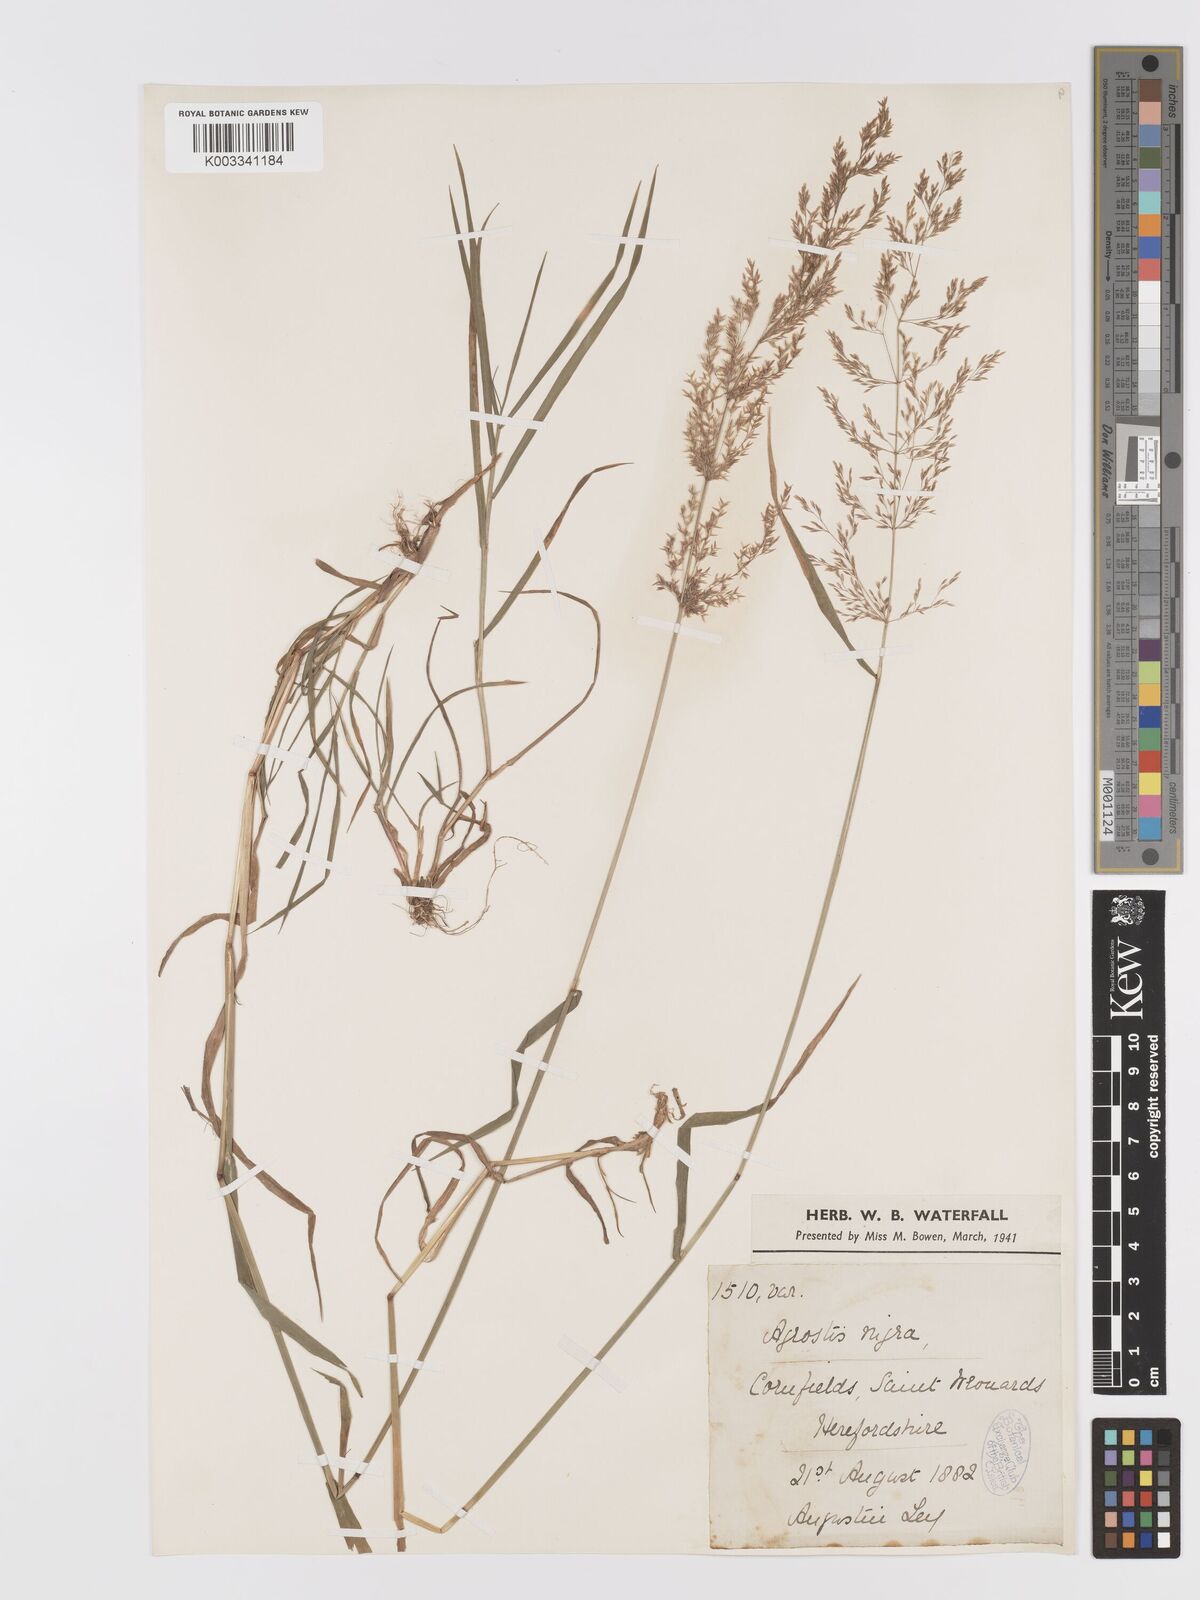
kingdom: Plantae
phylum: Tracheophyta
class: Liliopsida
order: Poales
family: Poaceae
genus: Agrostis
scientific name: Agrostis gigantea
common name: Black bent
